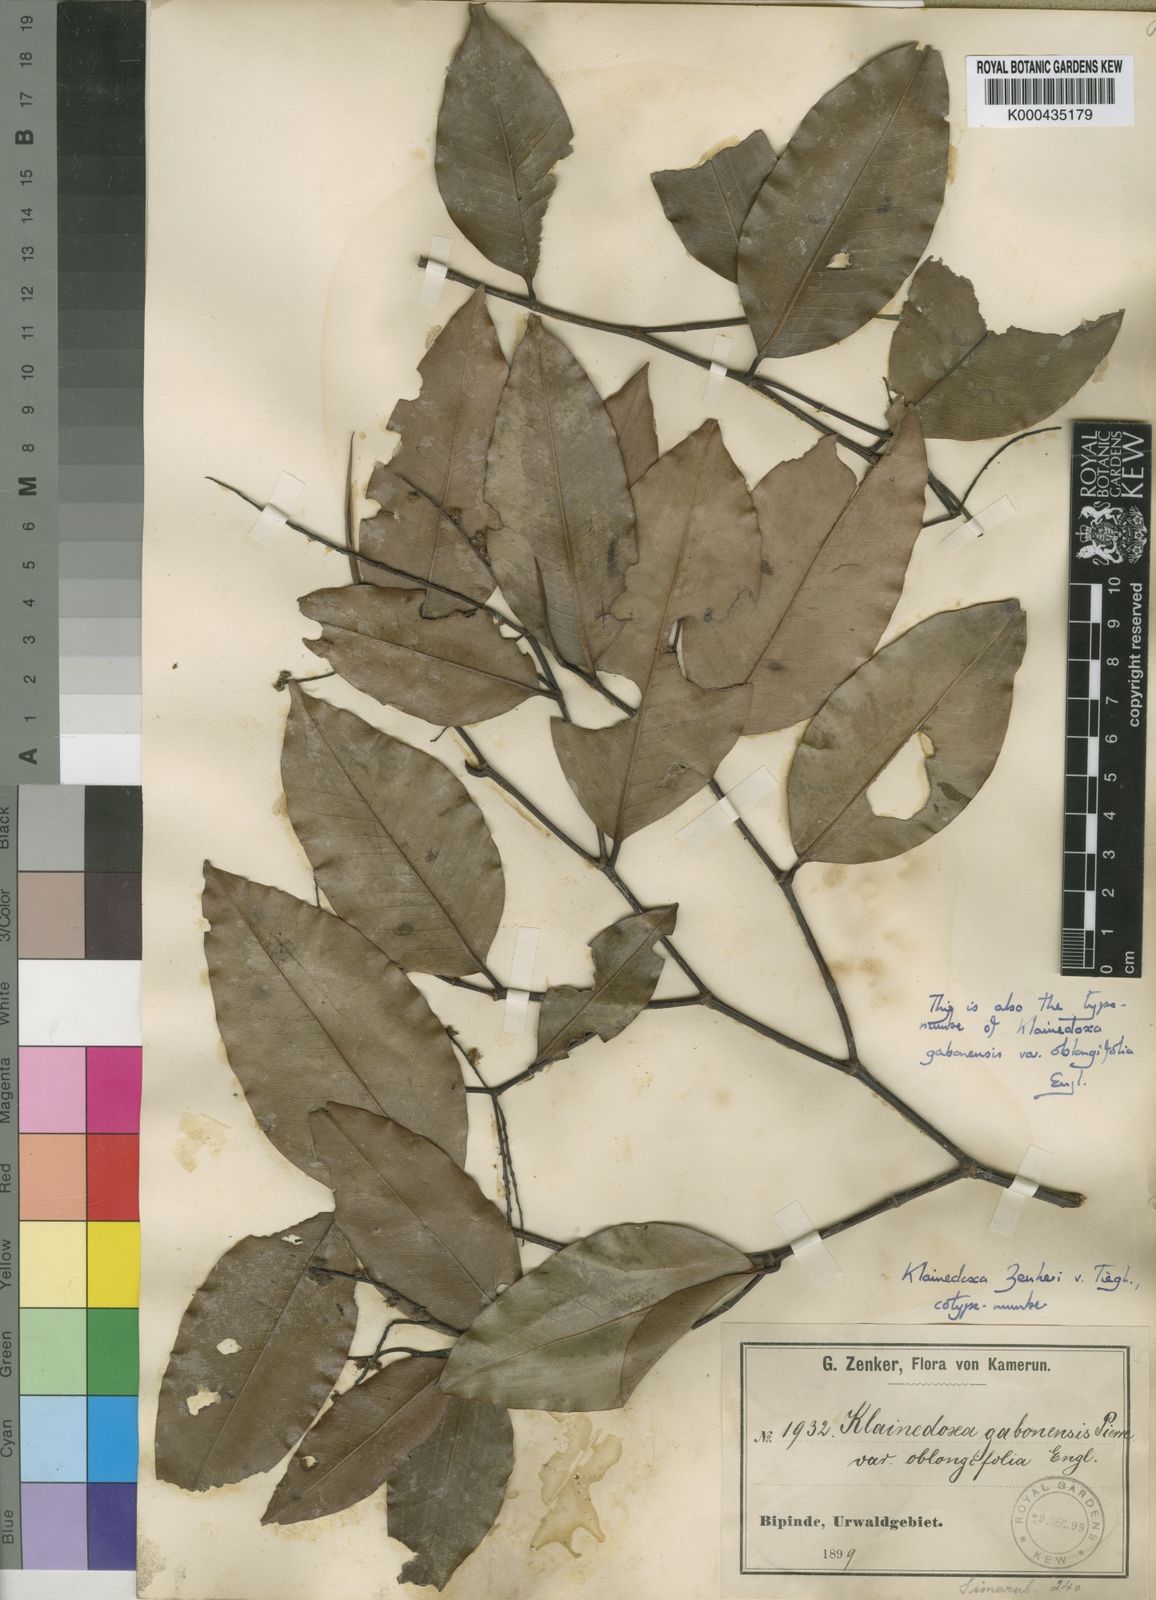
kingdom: Plantae
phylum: Tracheophyta
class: Magnoliopsida
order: Malpighiales
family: Irvingiaceae
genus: Klainedoxa
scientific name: Klainedoxa gabonensis
